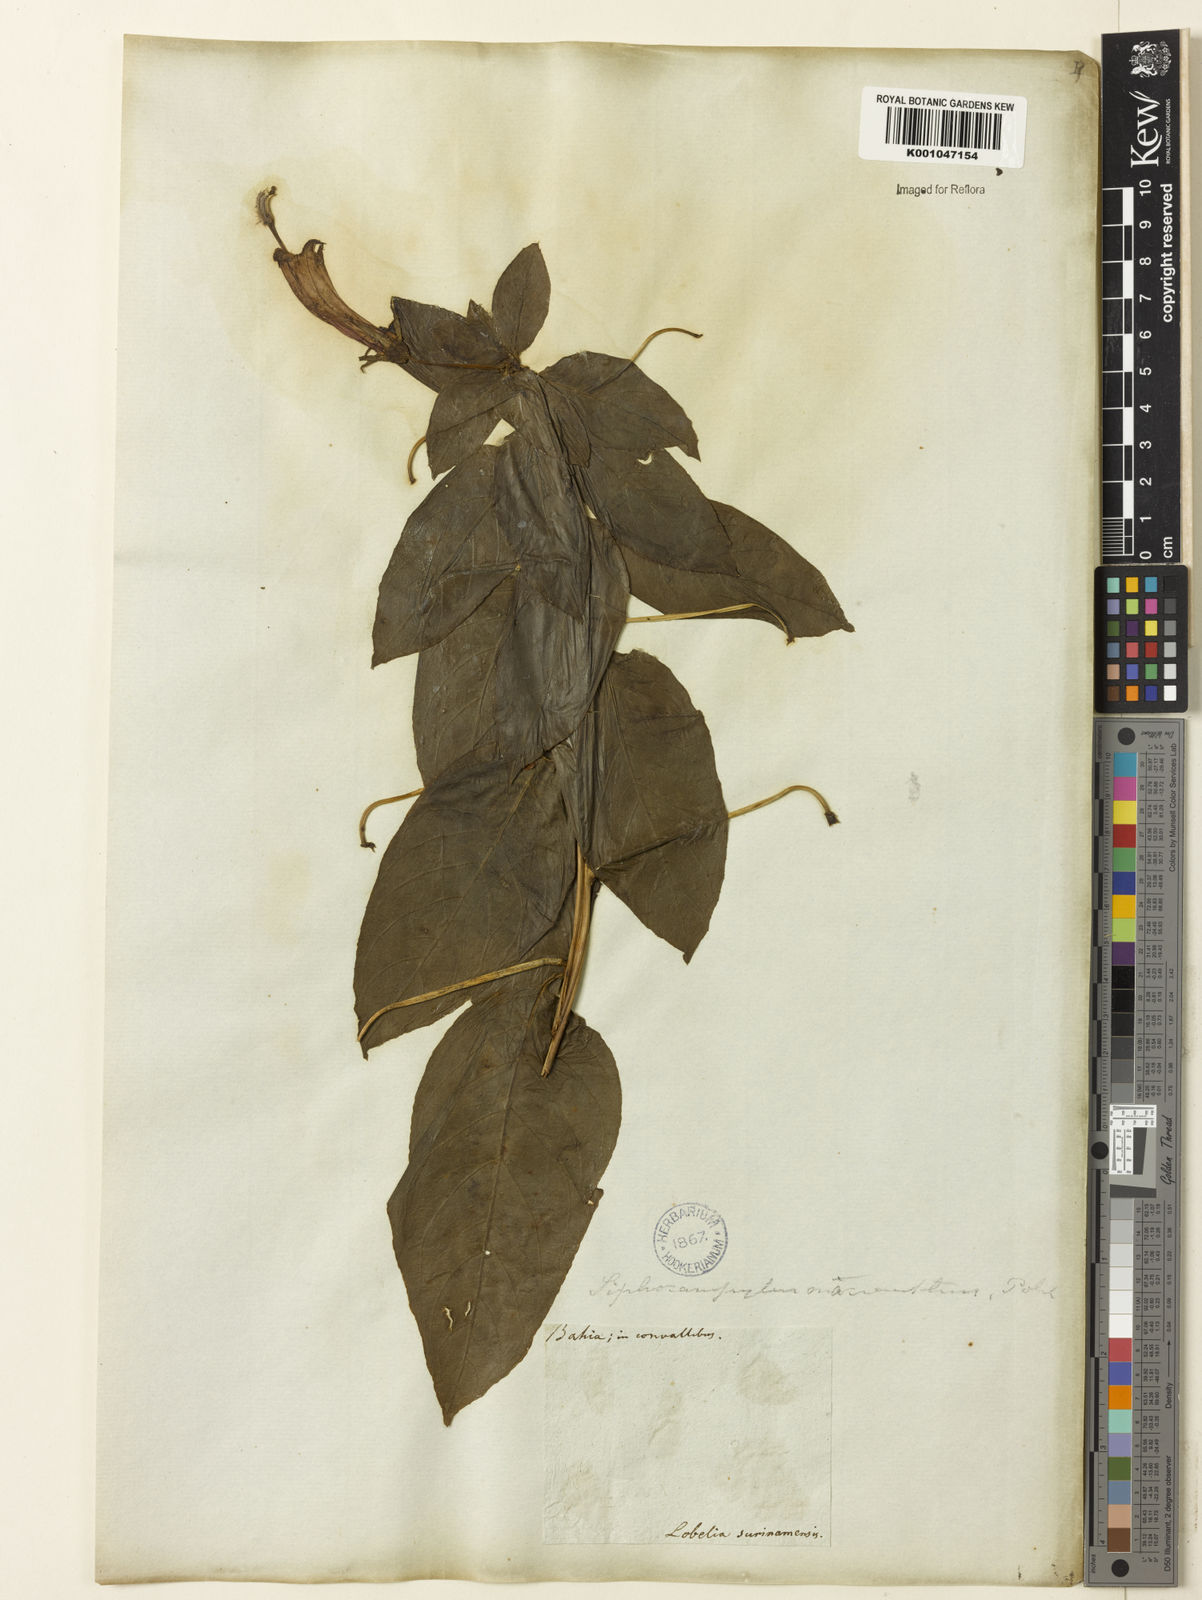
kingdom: Plantae
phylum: Tracheophyta
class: Magnoliopsida
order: Asterales
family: Campanulaceae
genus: Centropogon
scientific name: Centropogon cornutus
